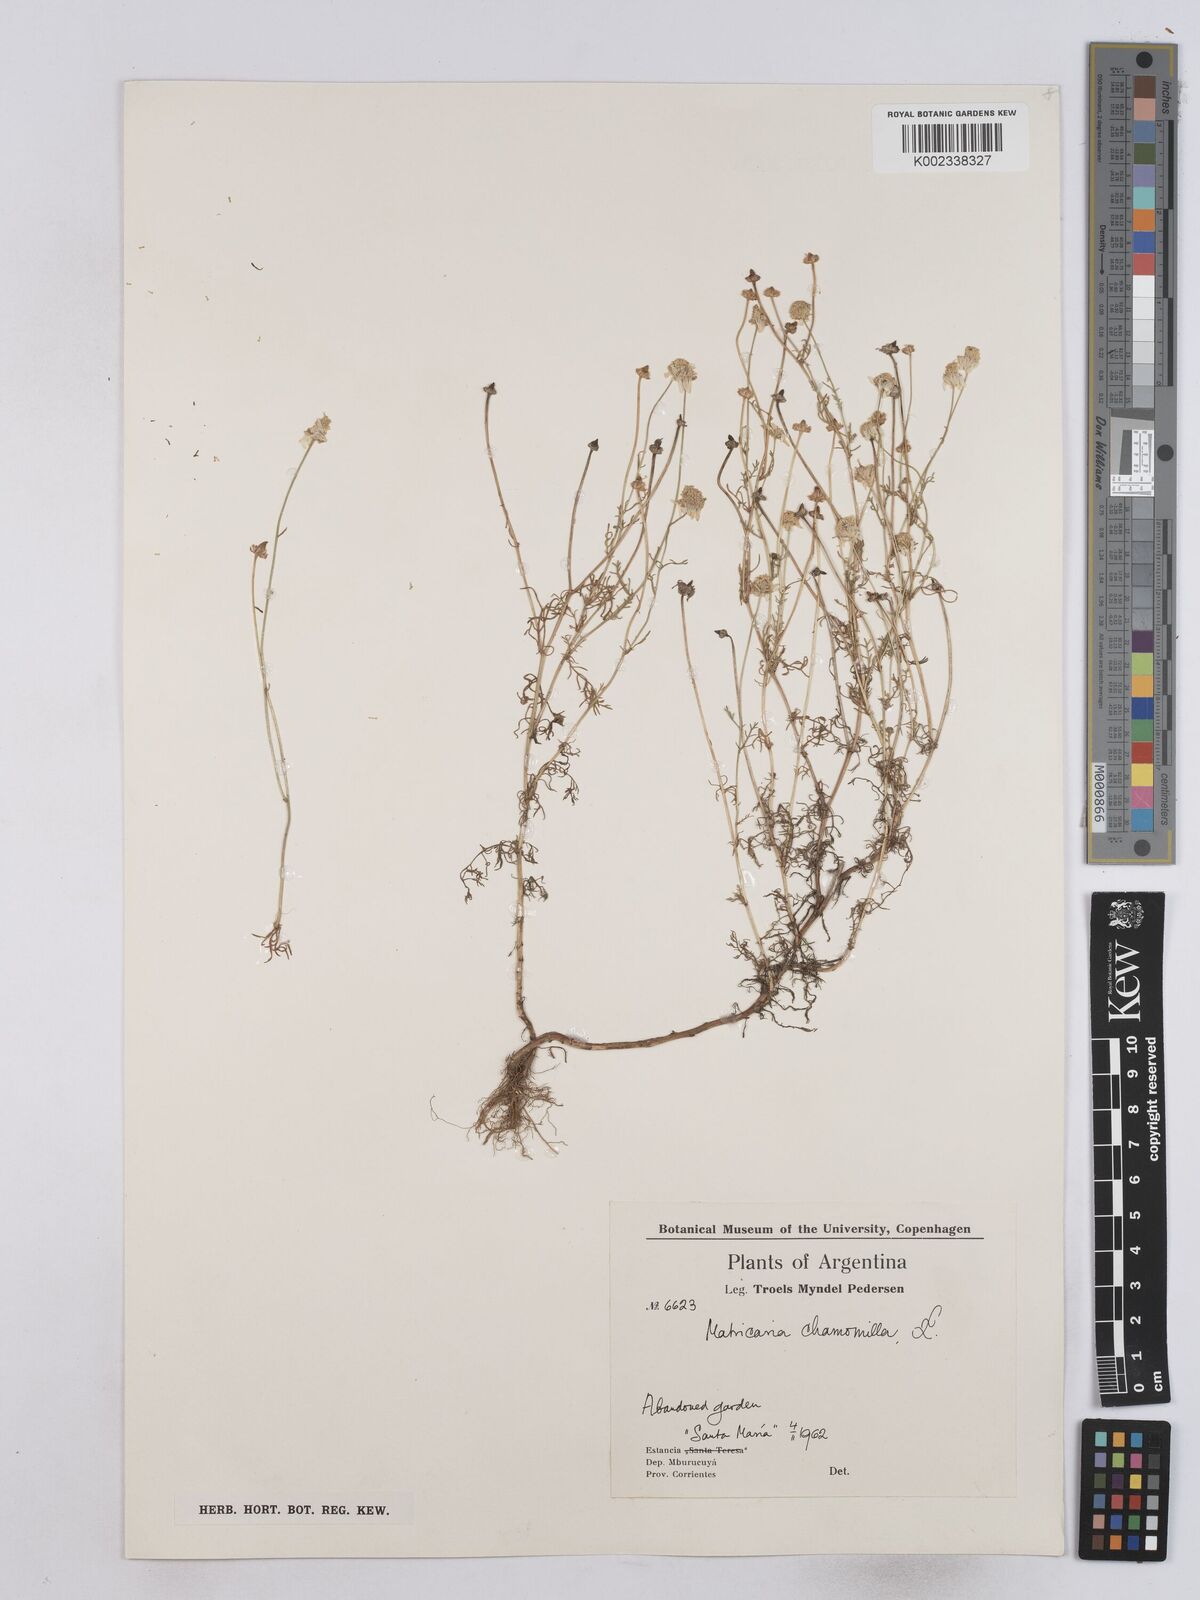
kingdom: Plantae
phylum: Tracheophyta
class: Magnoliopsida
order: Asterales
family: Asteraceae
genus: Matricaria
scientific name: Matricaria chamomilla
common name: Scented mayweed
